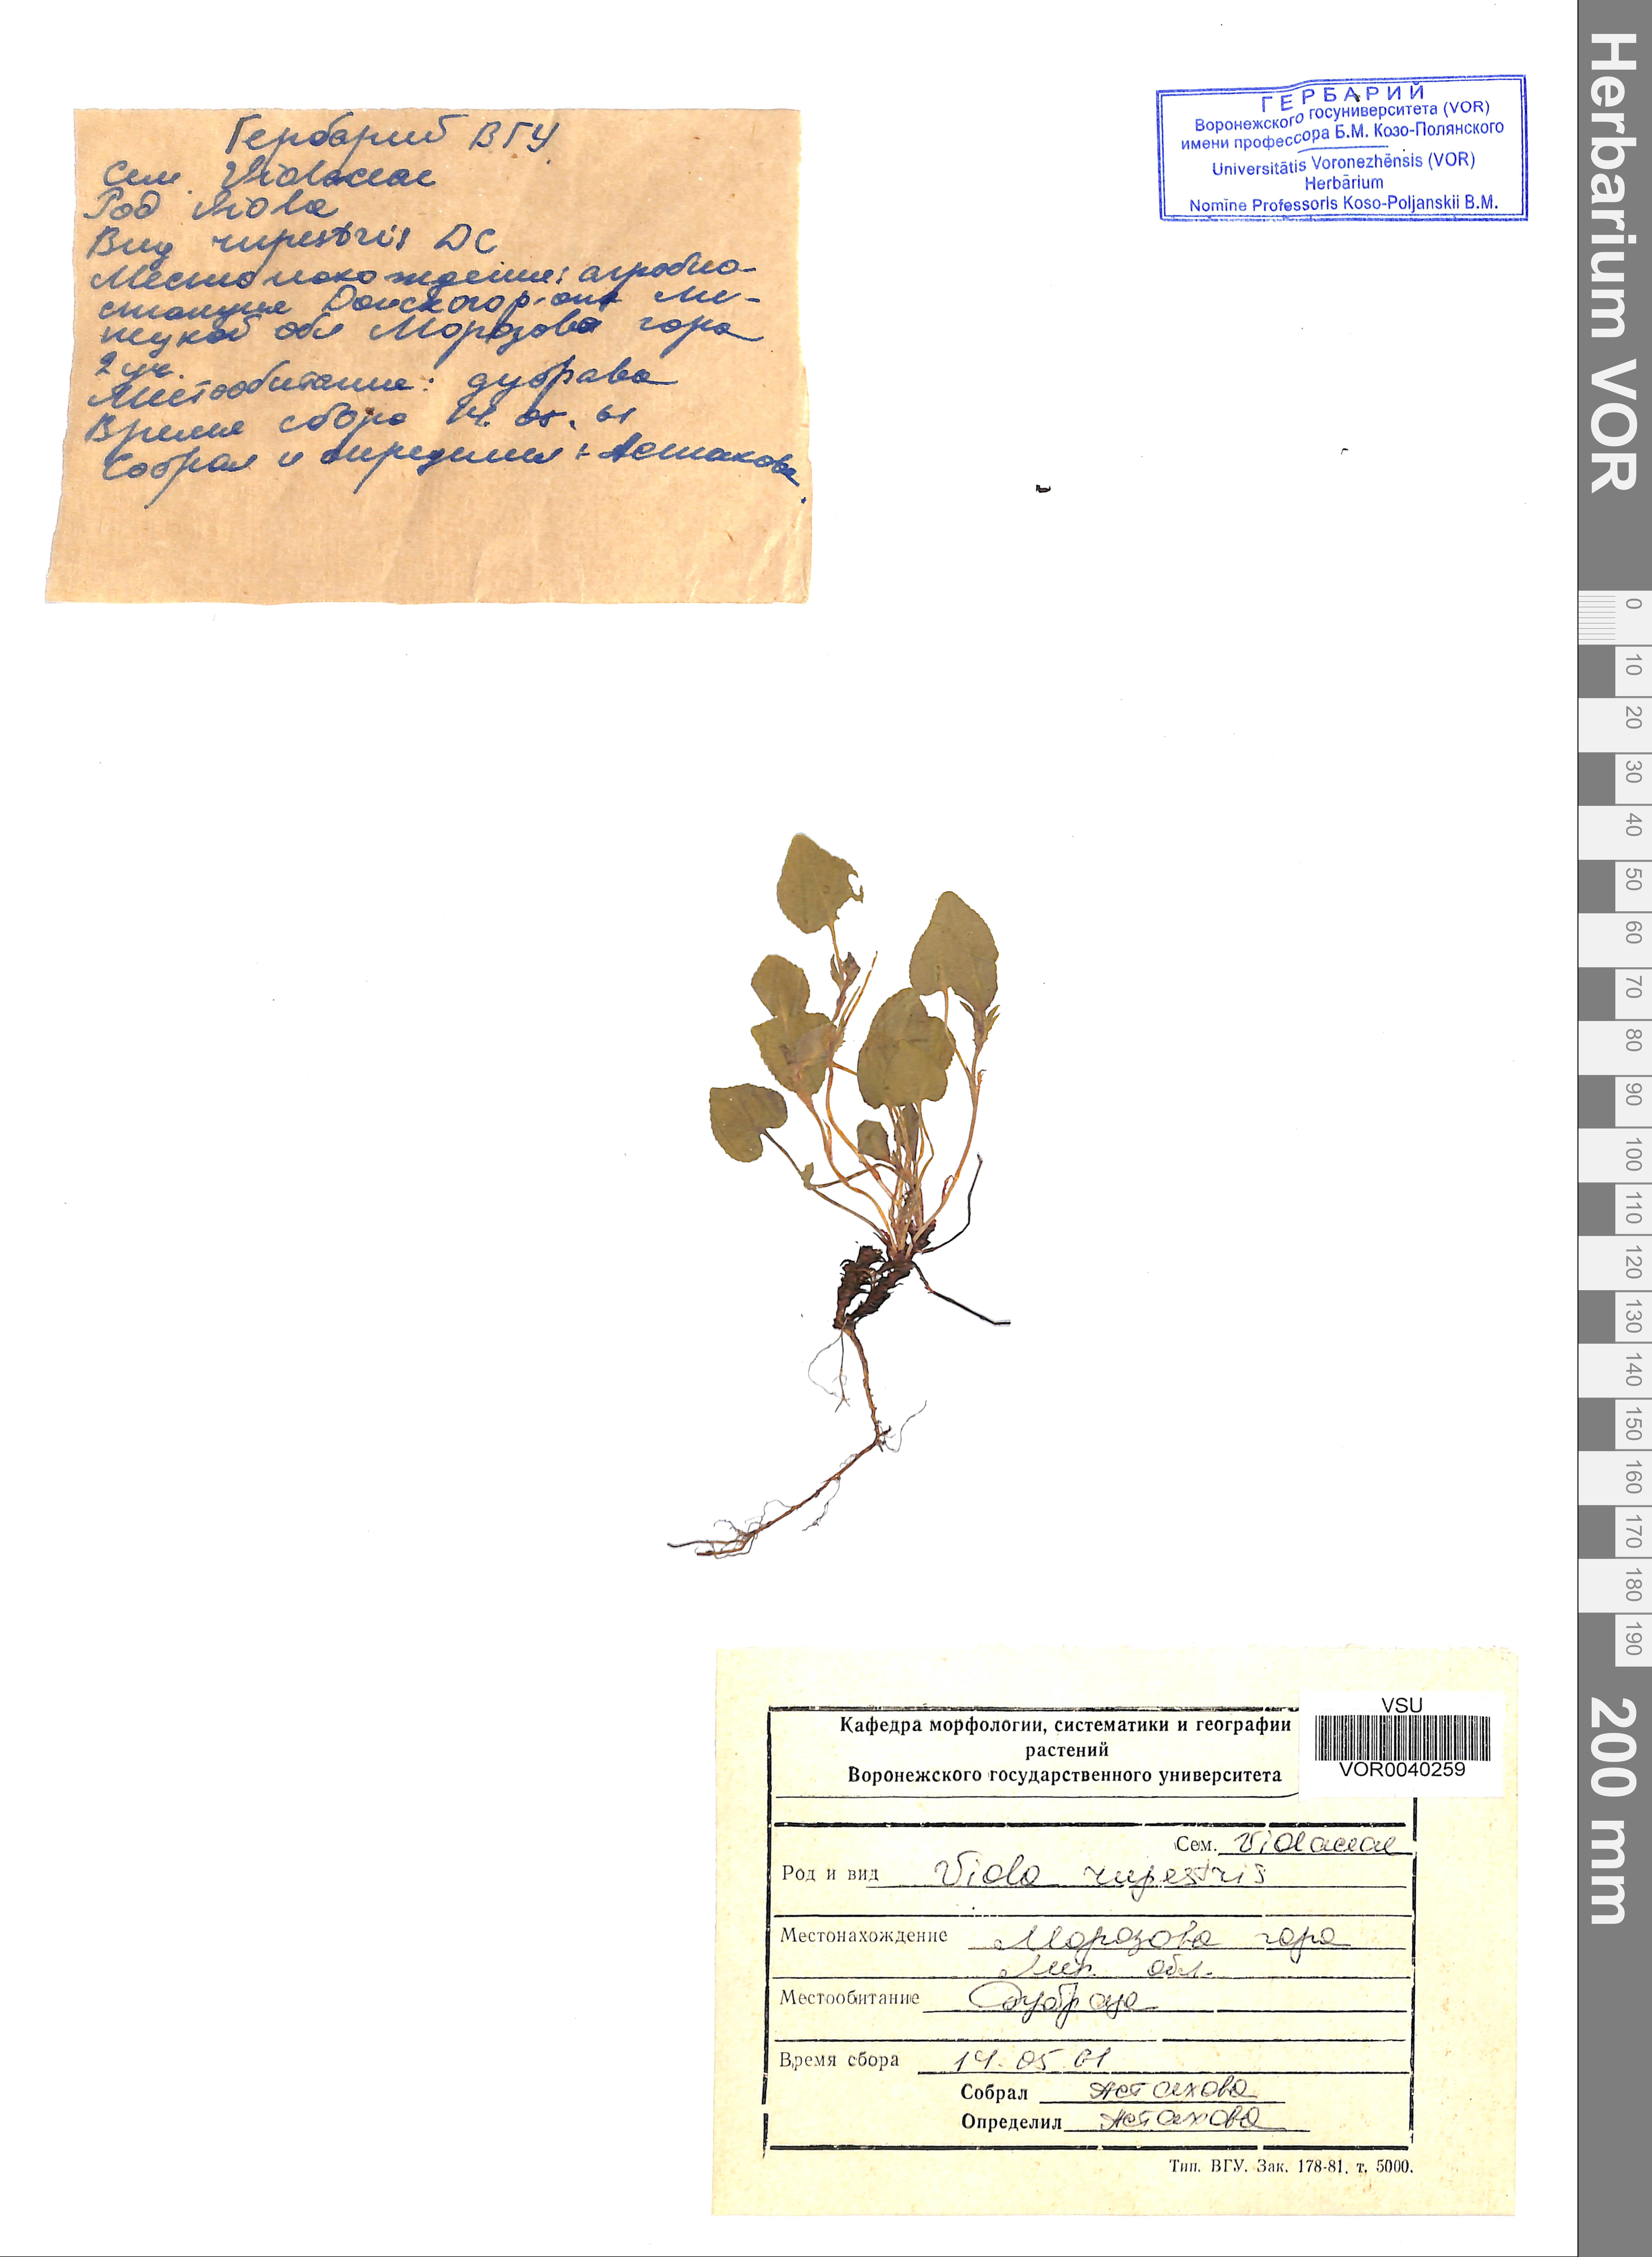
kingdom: Plantae
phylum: Tracheophyta
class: Magnoliopsida
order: Malpighiales
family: Violaceae
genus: Viola
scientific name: Viola rupestris
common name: Teesdale violet
